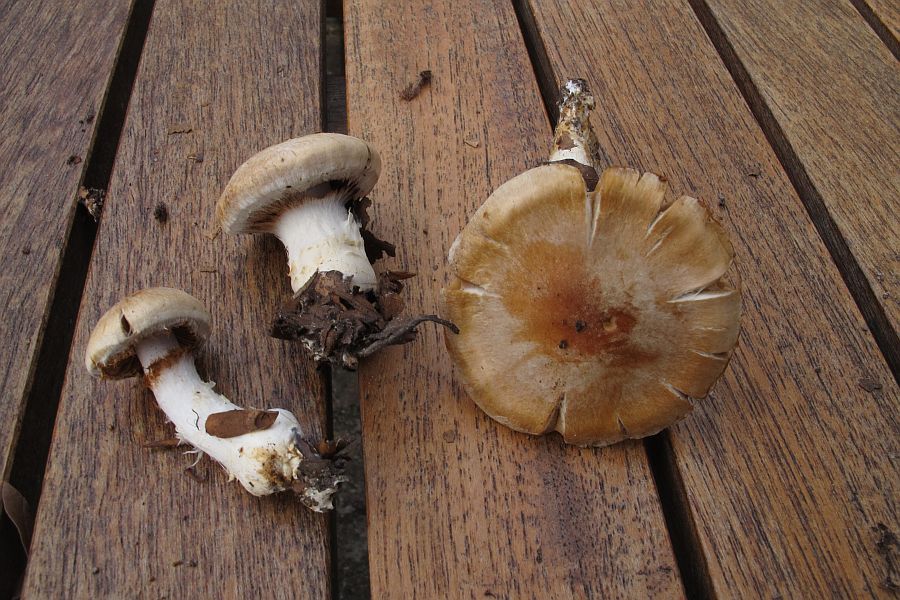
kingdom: Fungi
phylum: Basidiomycota
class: Agaricomycetes
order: Agaricales
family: Cortinariaceae
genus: Thaxterogaster
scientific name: Thaxterogaster barbatus
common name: elfenbens-slørhat
